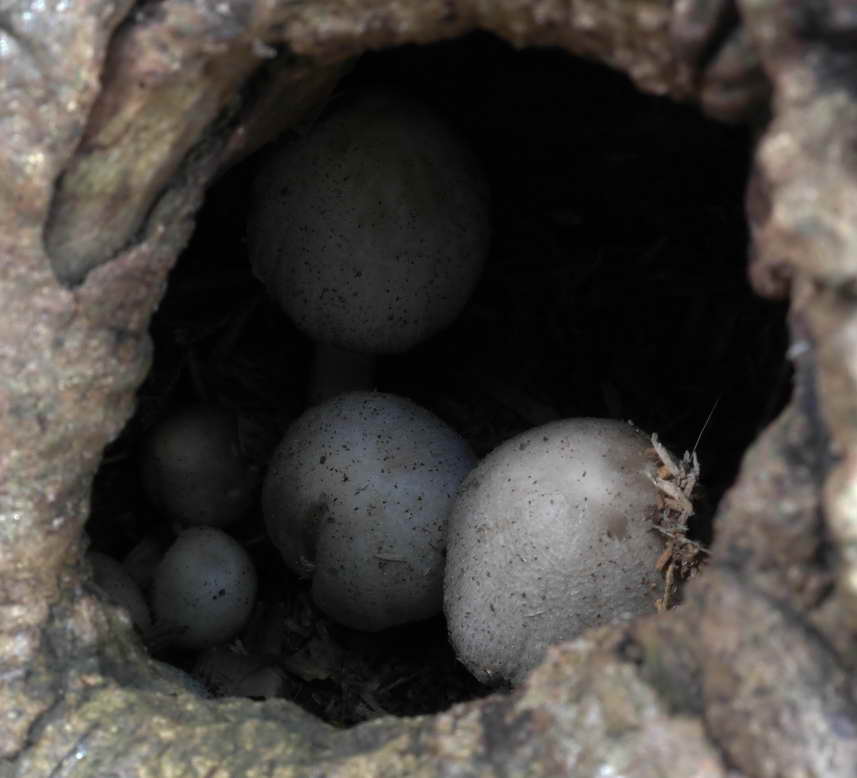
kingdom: Fungi
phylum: Basidiomycota
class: Agaricomycetes
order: Agaricales
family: Psathyrellaceae
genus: Coprinopsis
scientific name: Coprinopsis romagnesiana
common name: brunskællet blækhat
